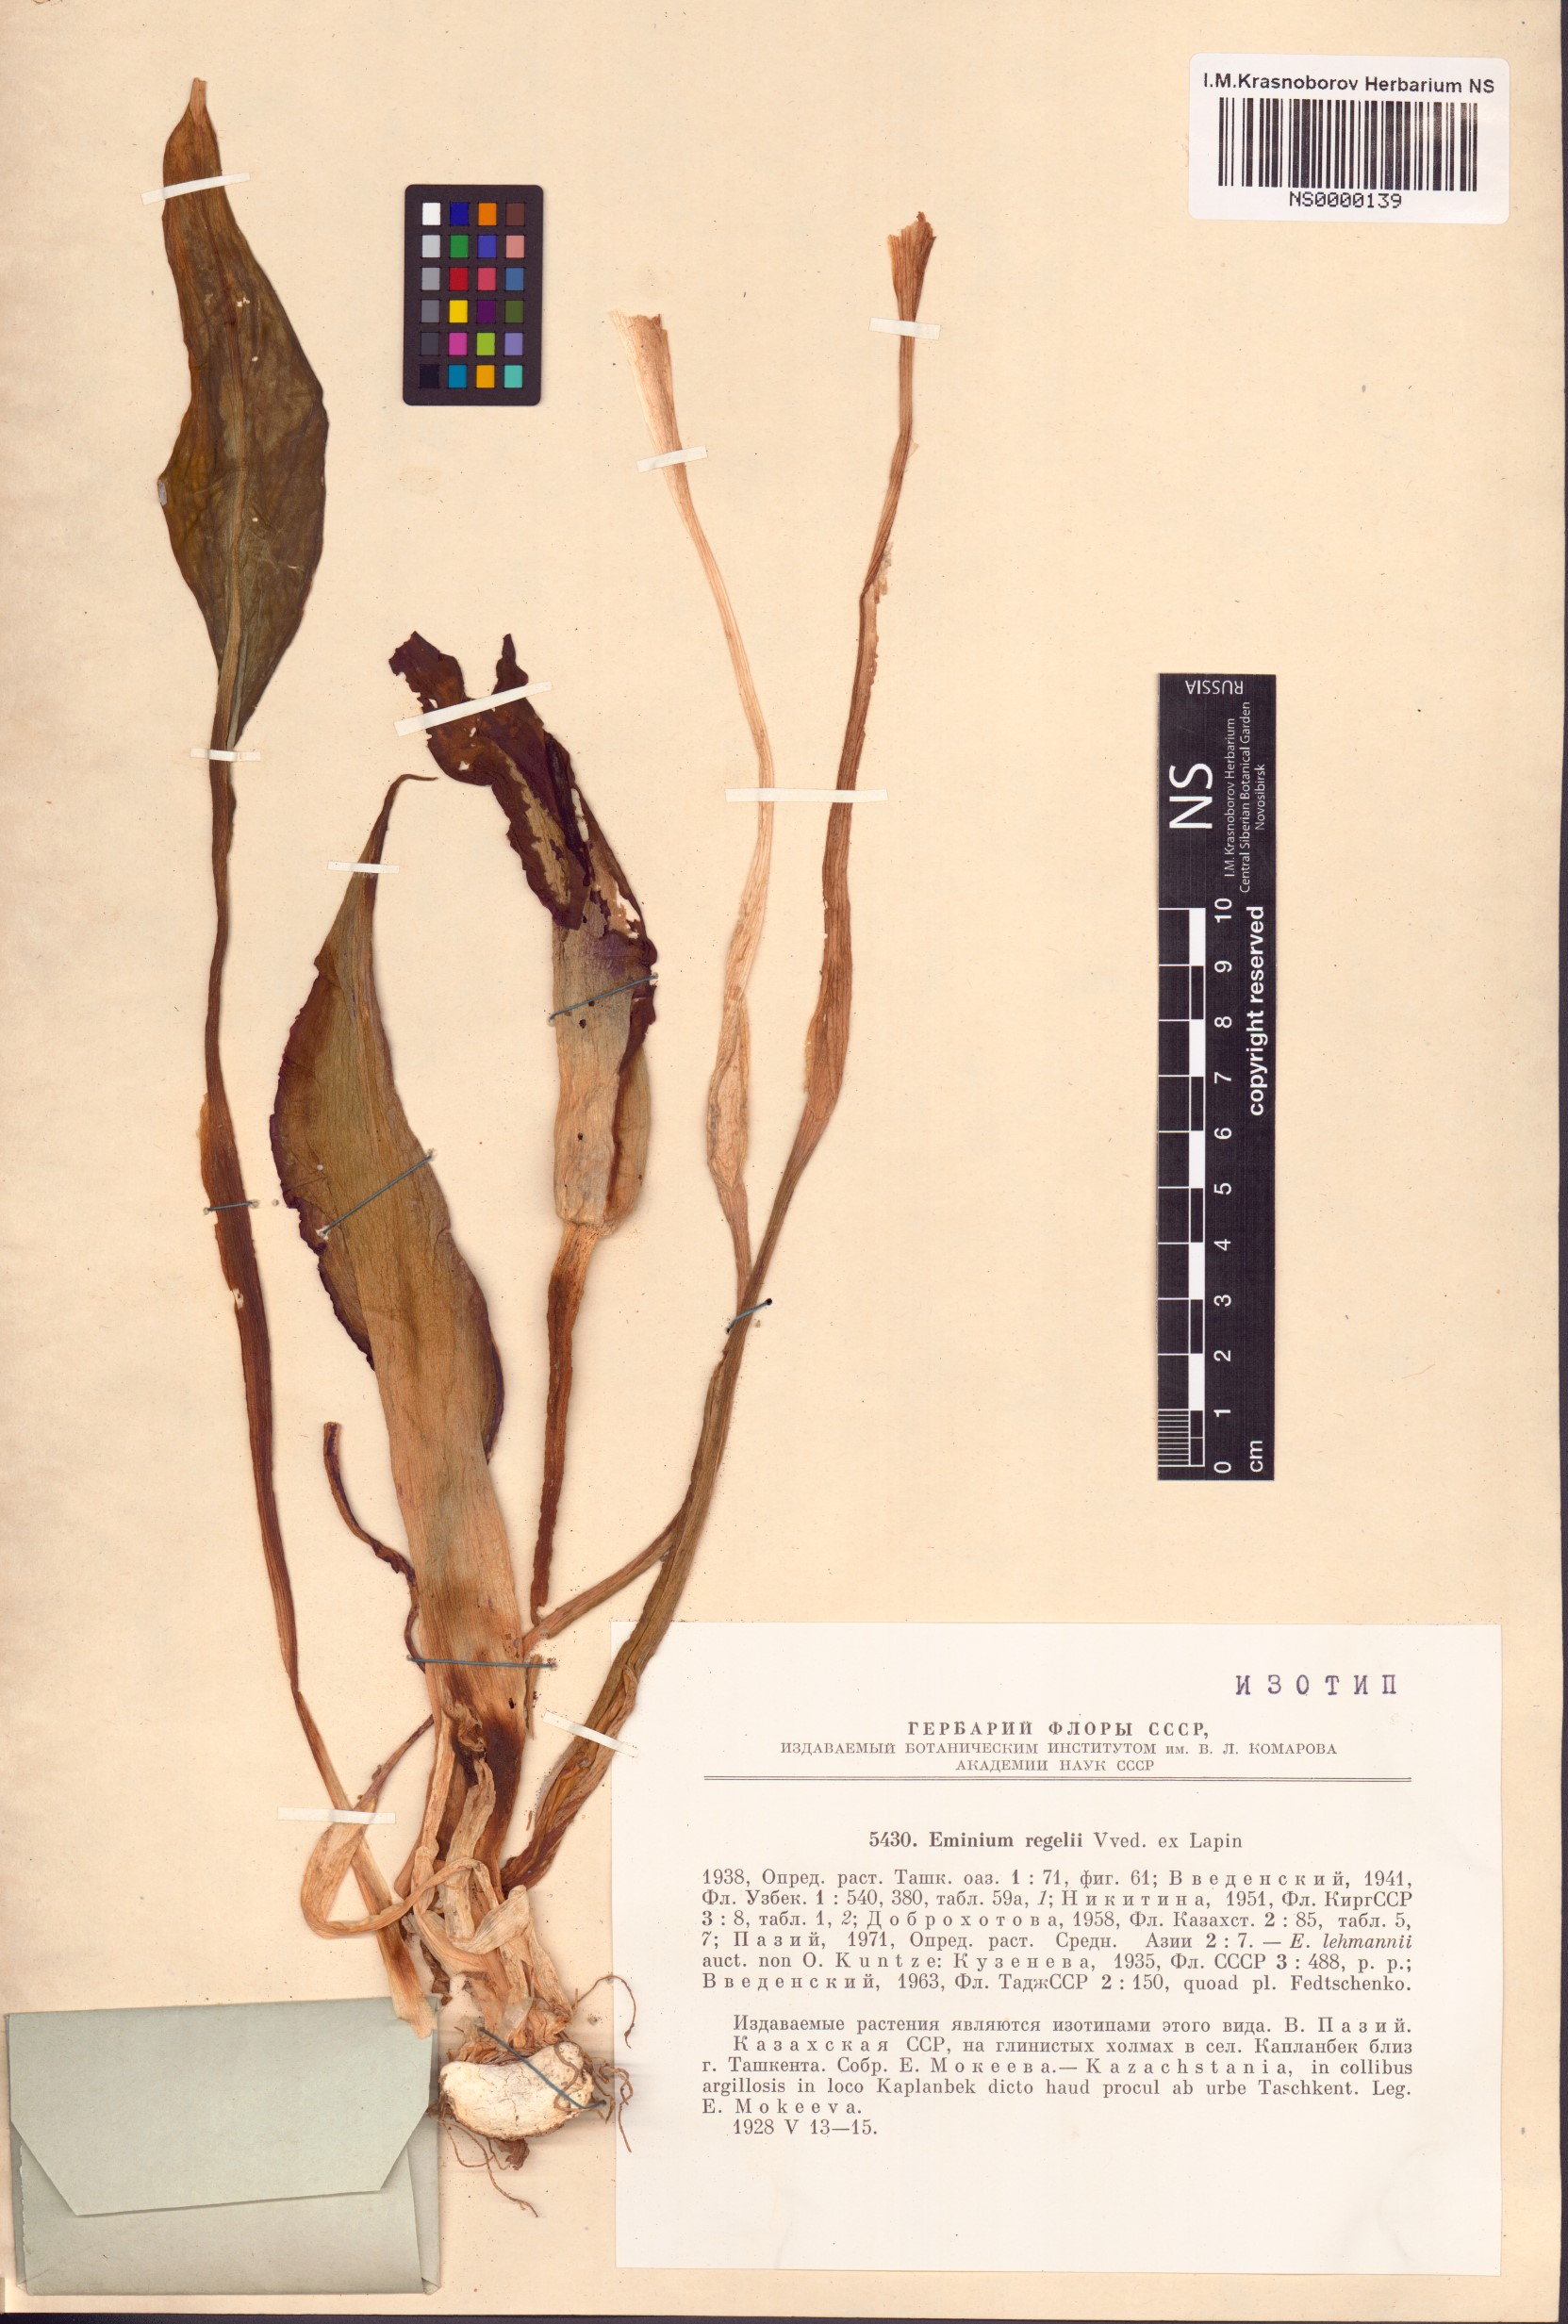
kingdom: Plantae
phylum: Tracheophyta
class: Liliopsida
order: Alismatales
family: Araceae
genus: Eminium
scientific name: Eminium regelii
